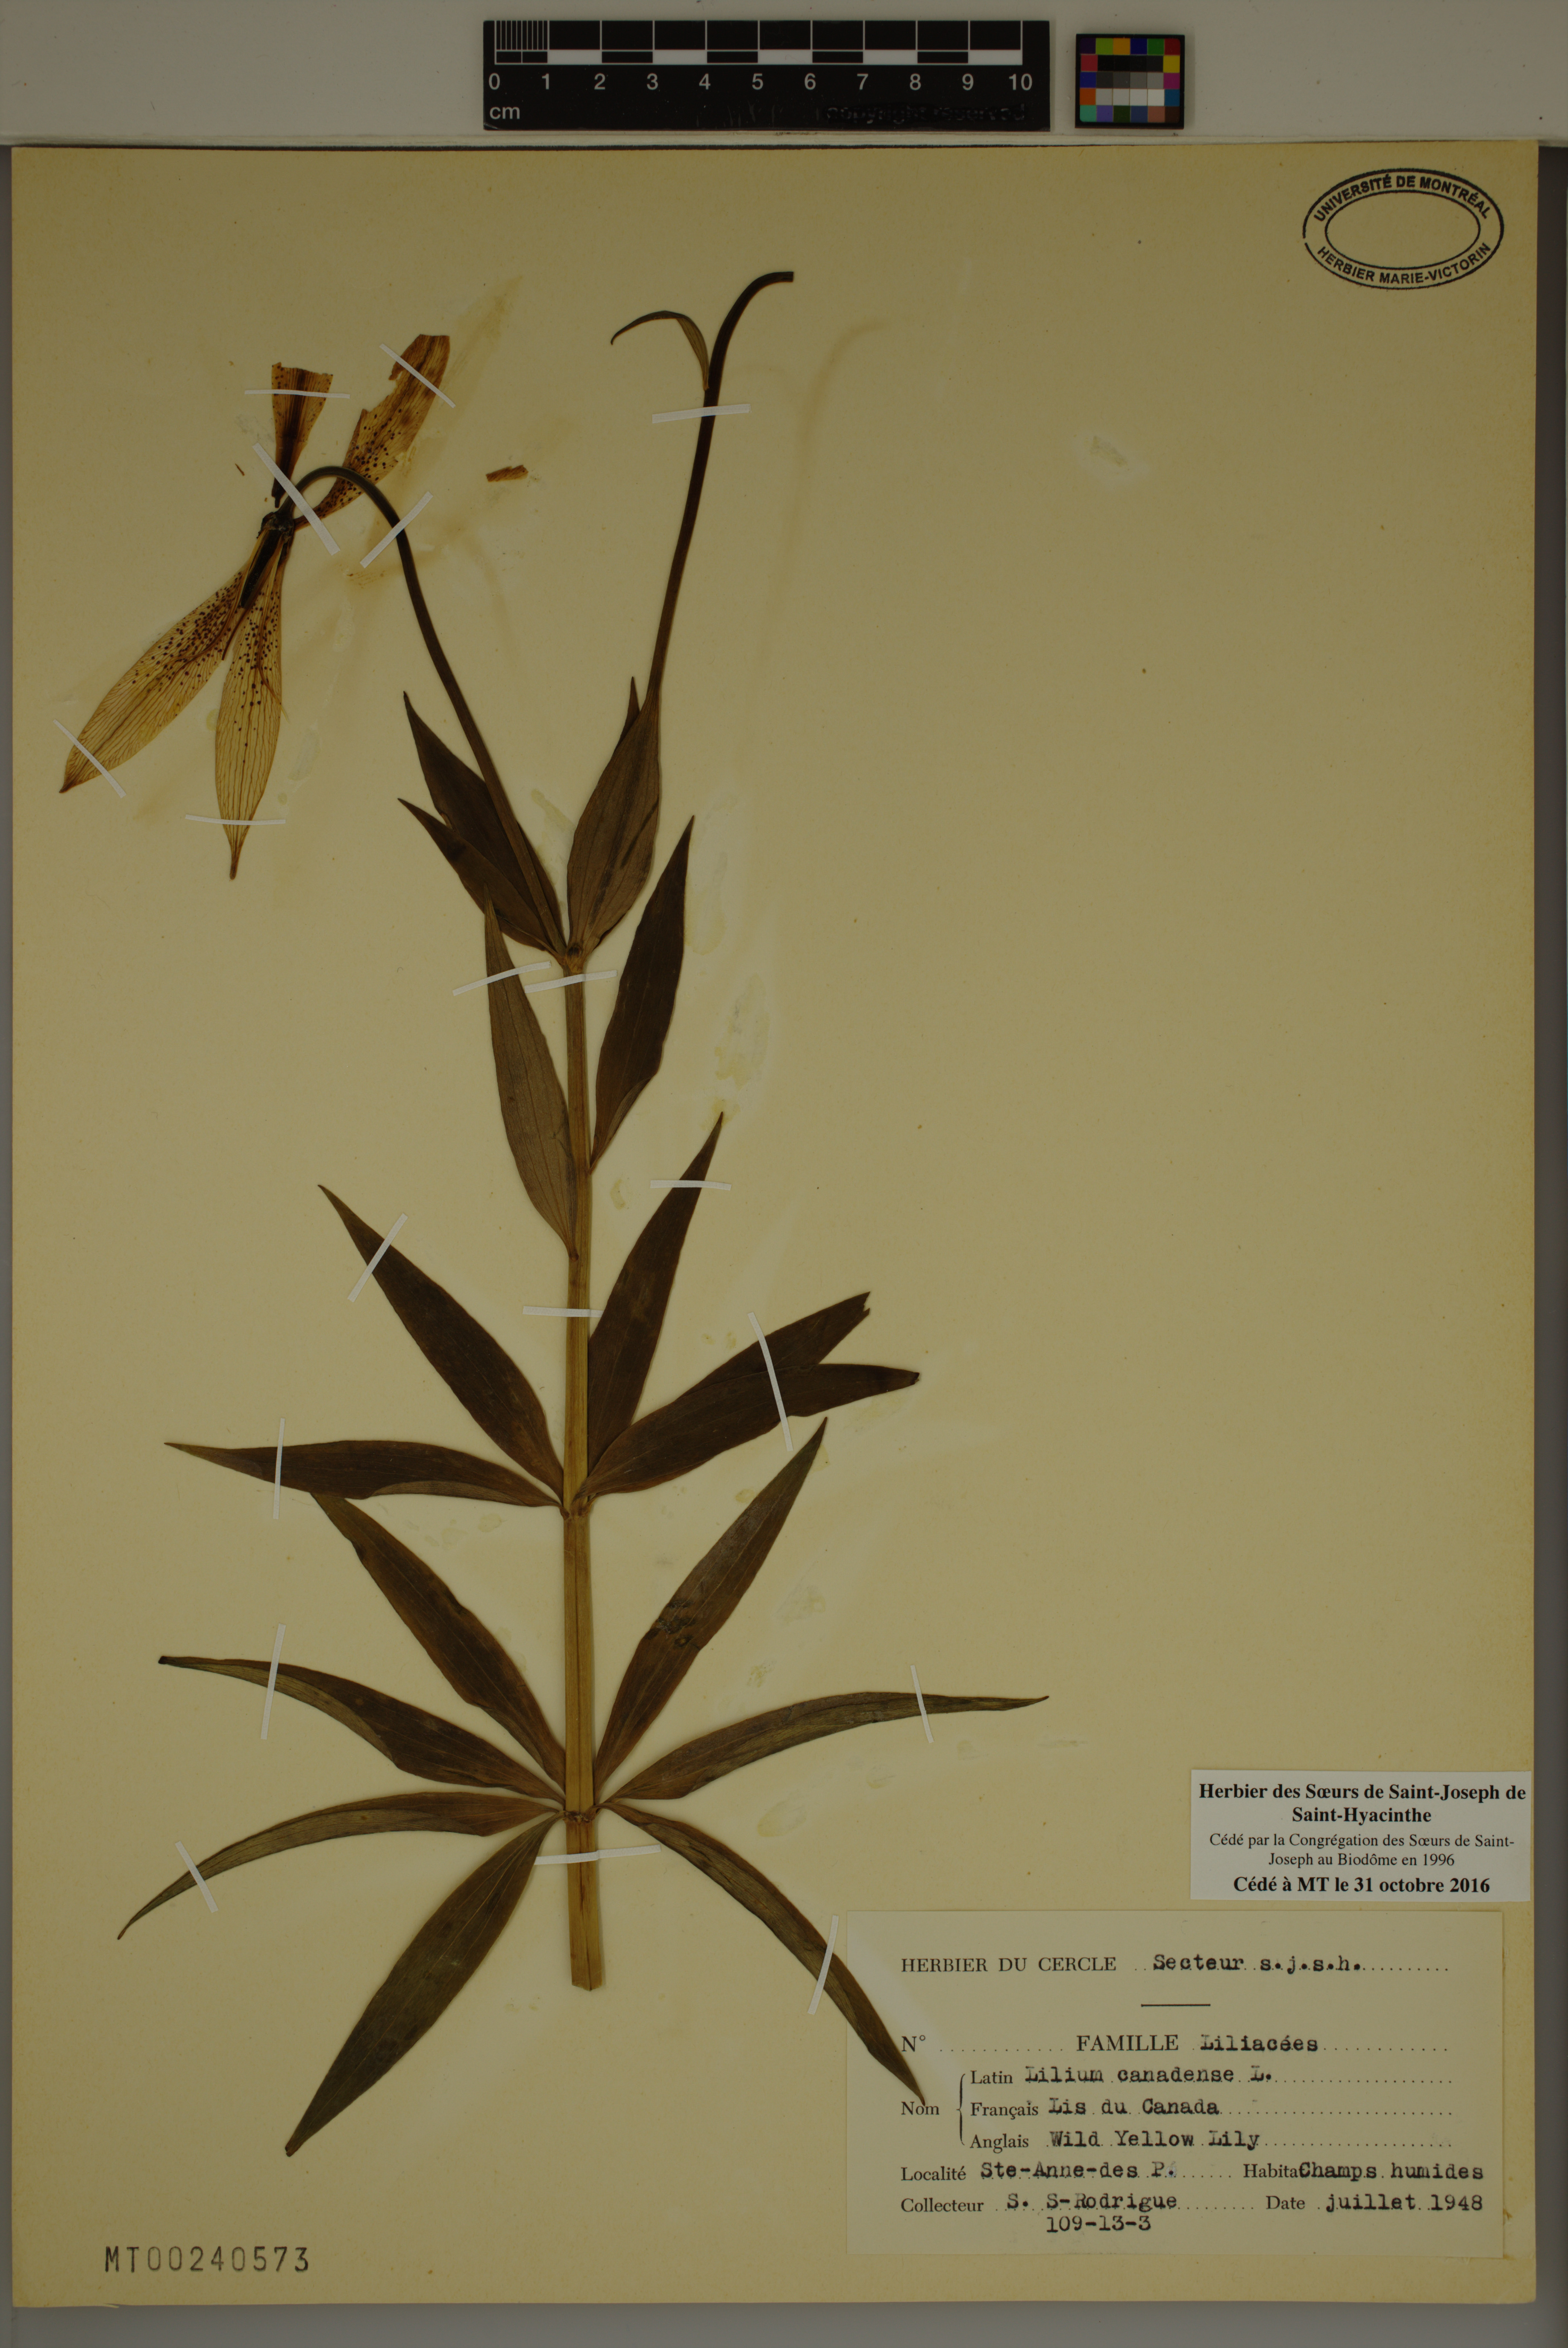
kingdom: Plantae
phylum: Tracheophyta
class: Liliopsida
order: Liliales
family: Liliaceae
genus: Lilium
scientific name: Lilium canadense
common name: Canada lily
